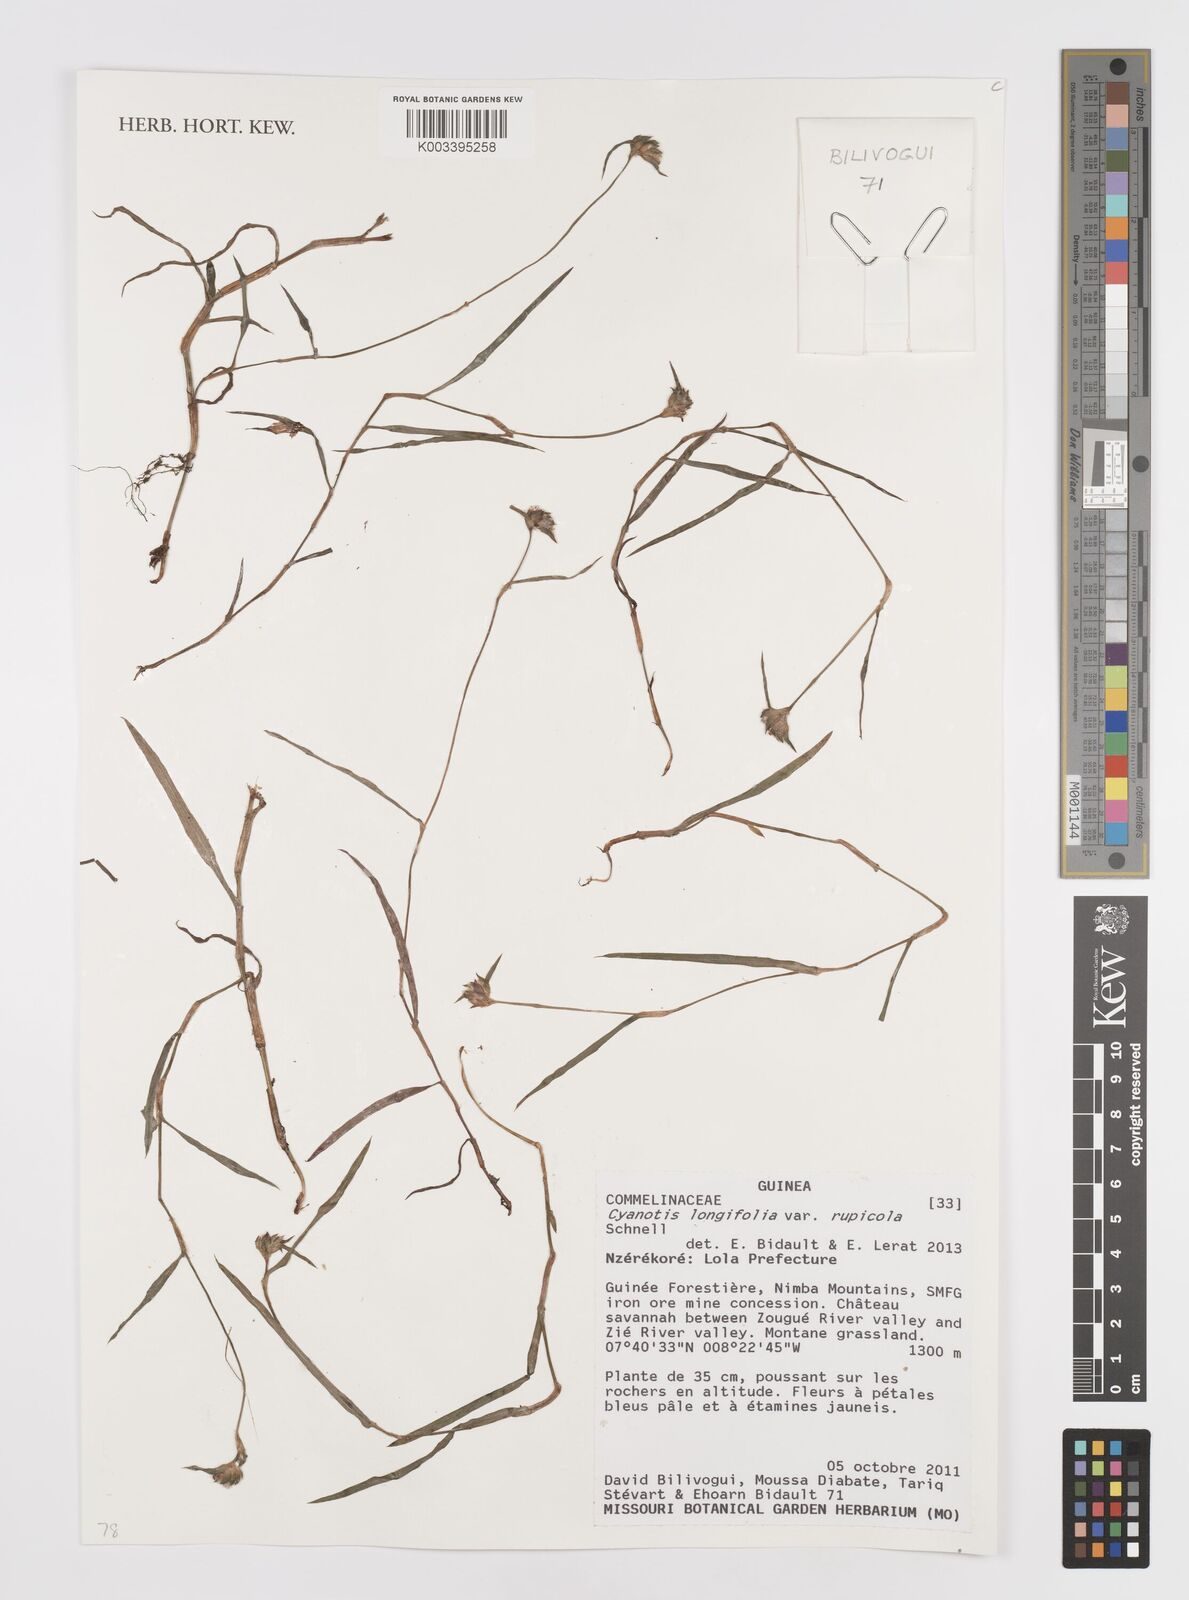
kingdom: Plantae
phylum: Tracheophyta
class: Liliopsida
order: Commelinales
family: Commelinaceae
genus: Cyanotis
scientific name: Cyanotis longifolia
